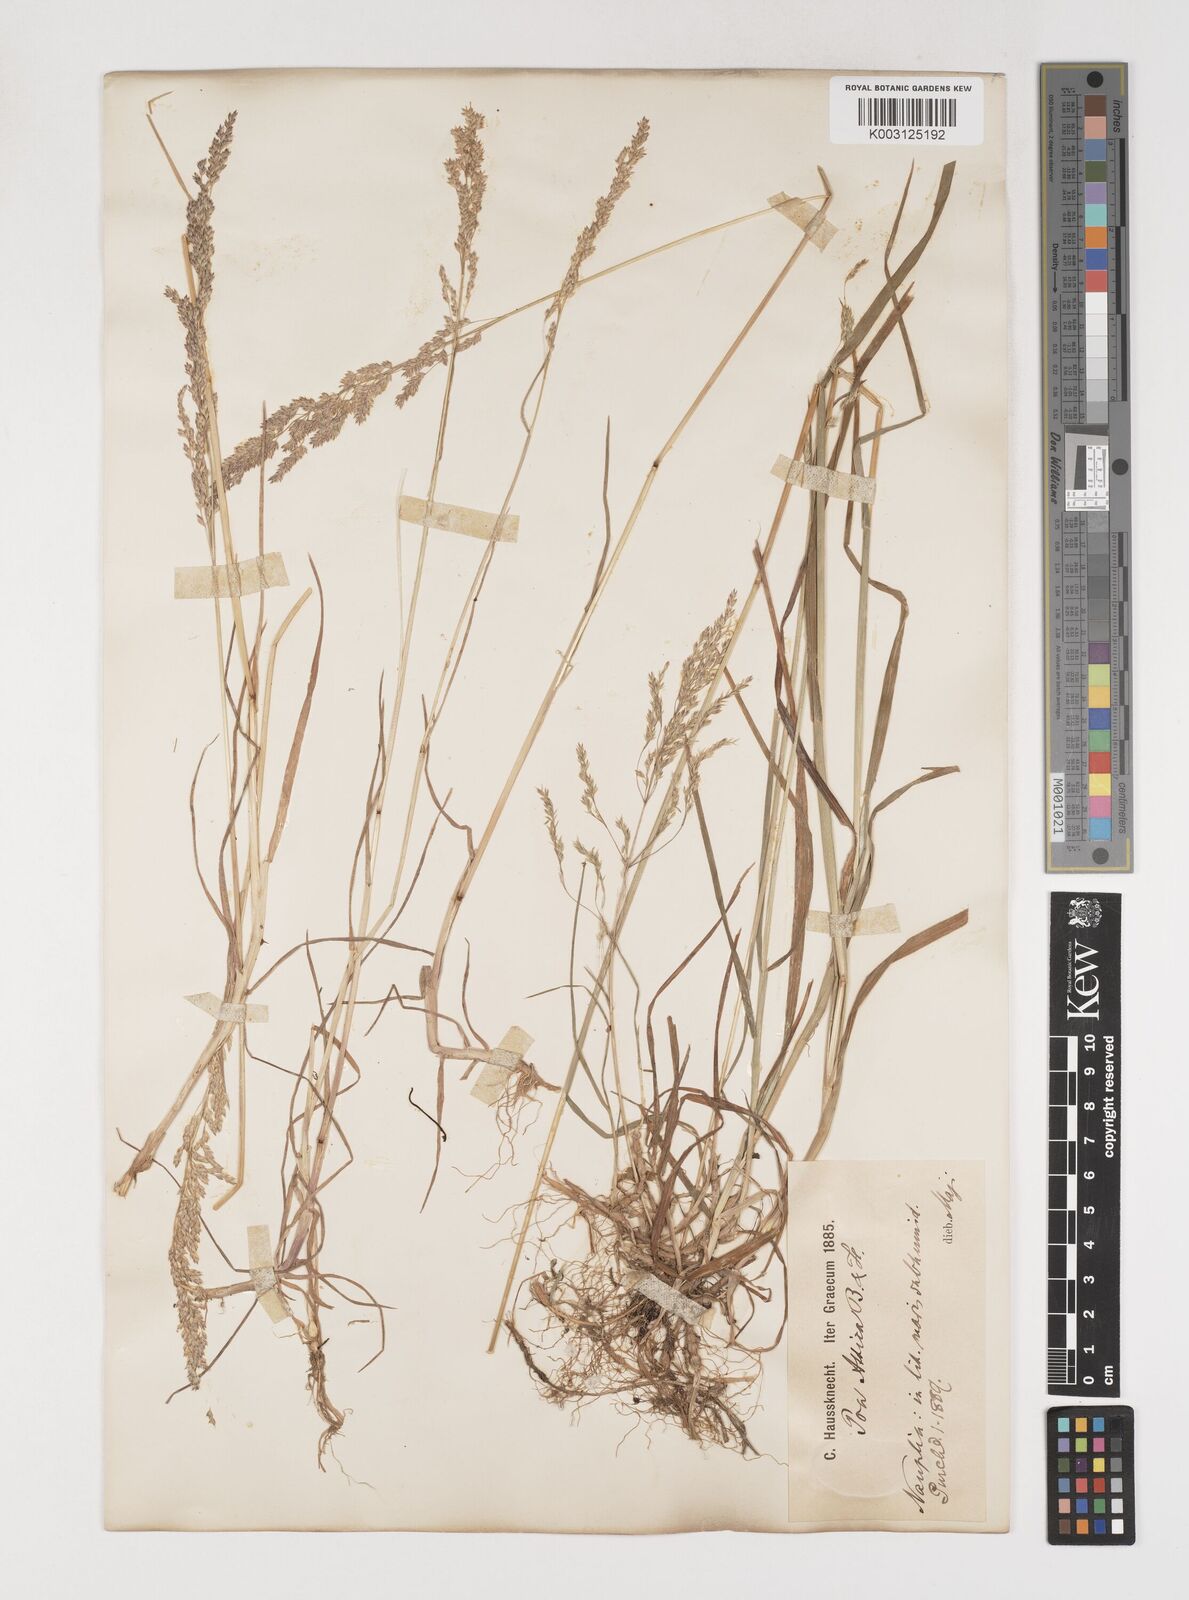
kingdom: Plantae
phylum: Tracheophyta
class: Liliopsida
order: Poales
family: Poaceae
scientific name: Poaceae
